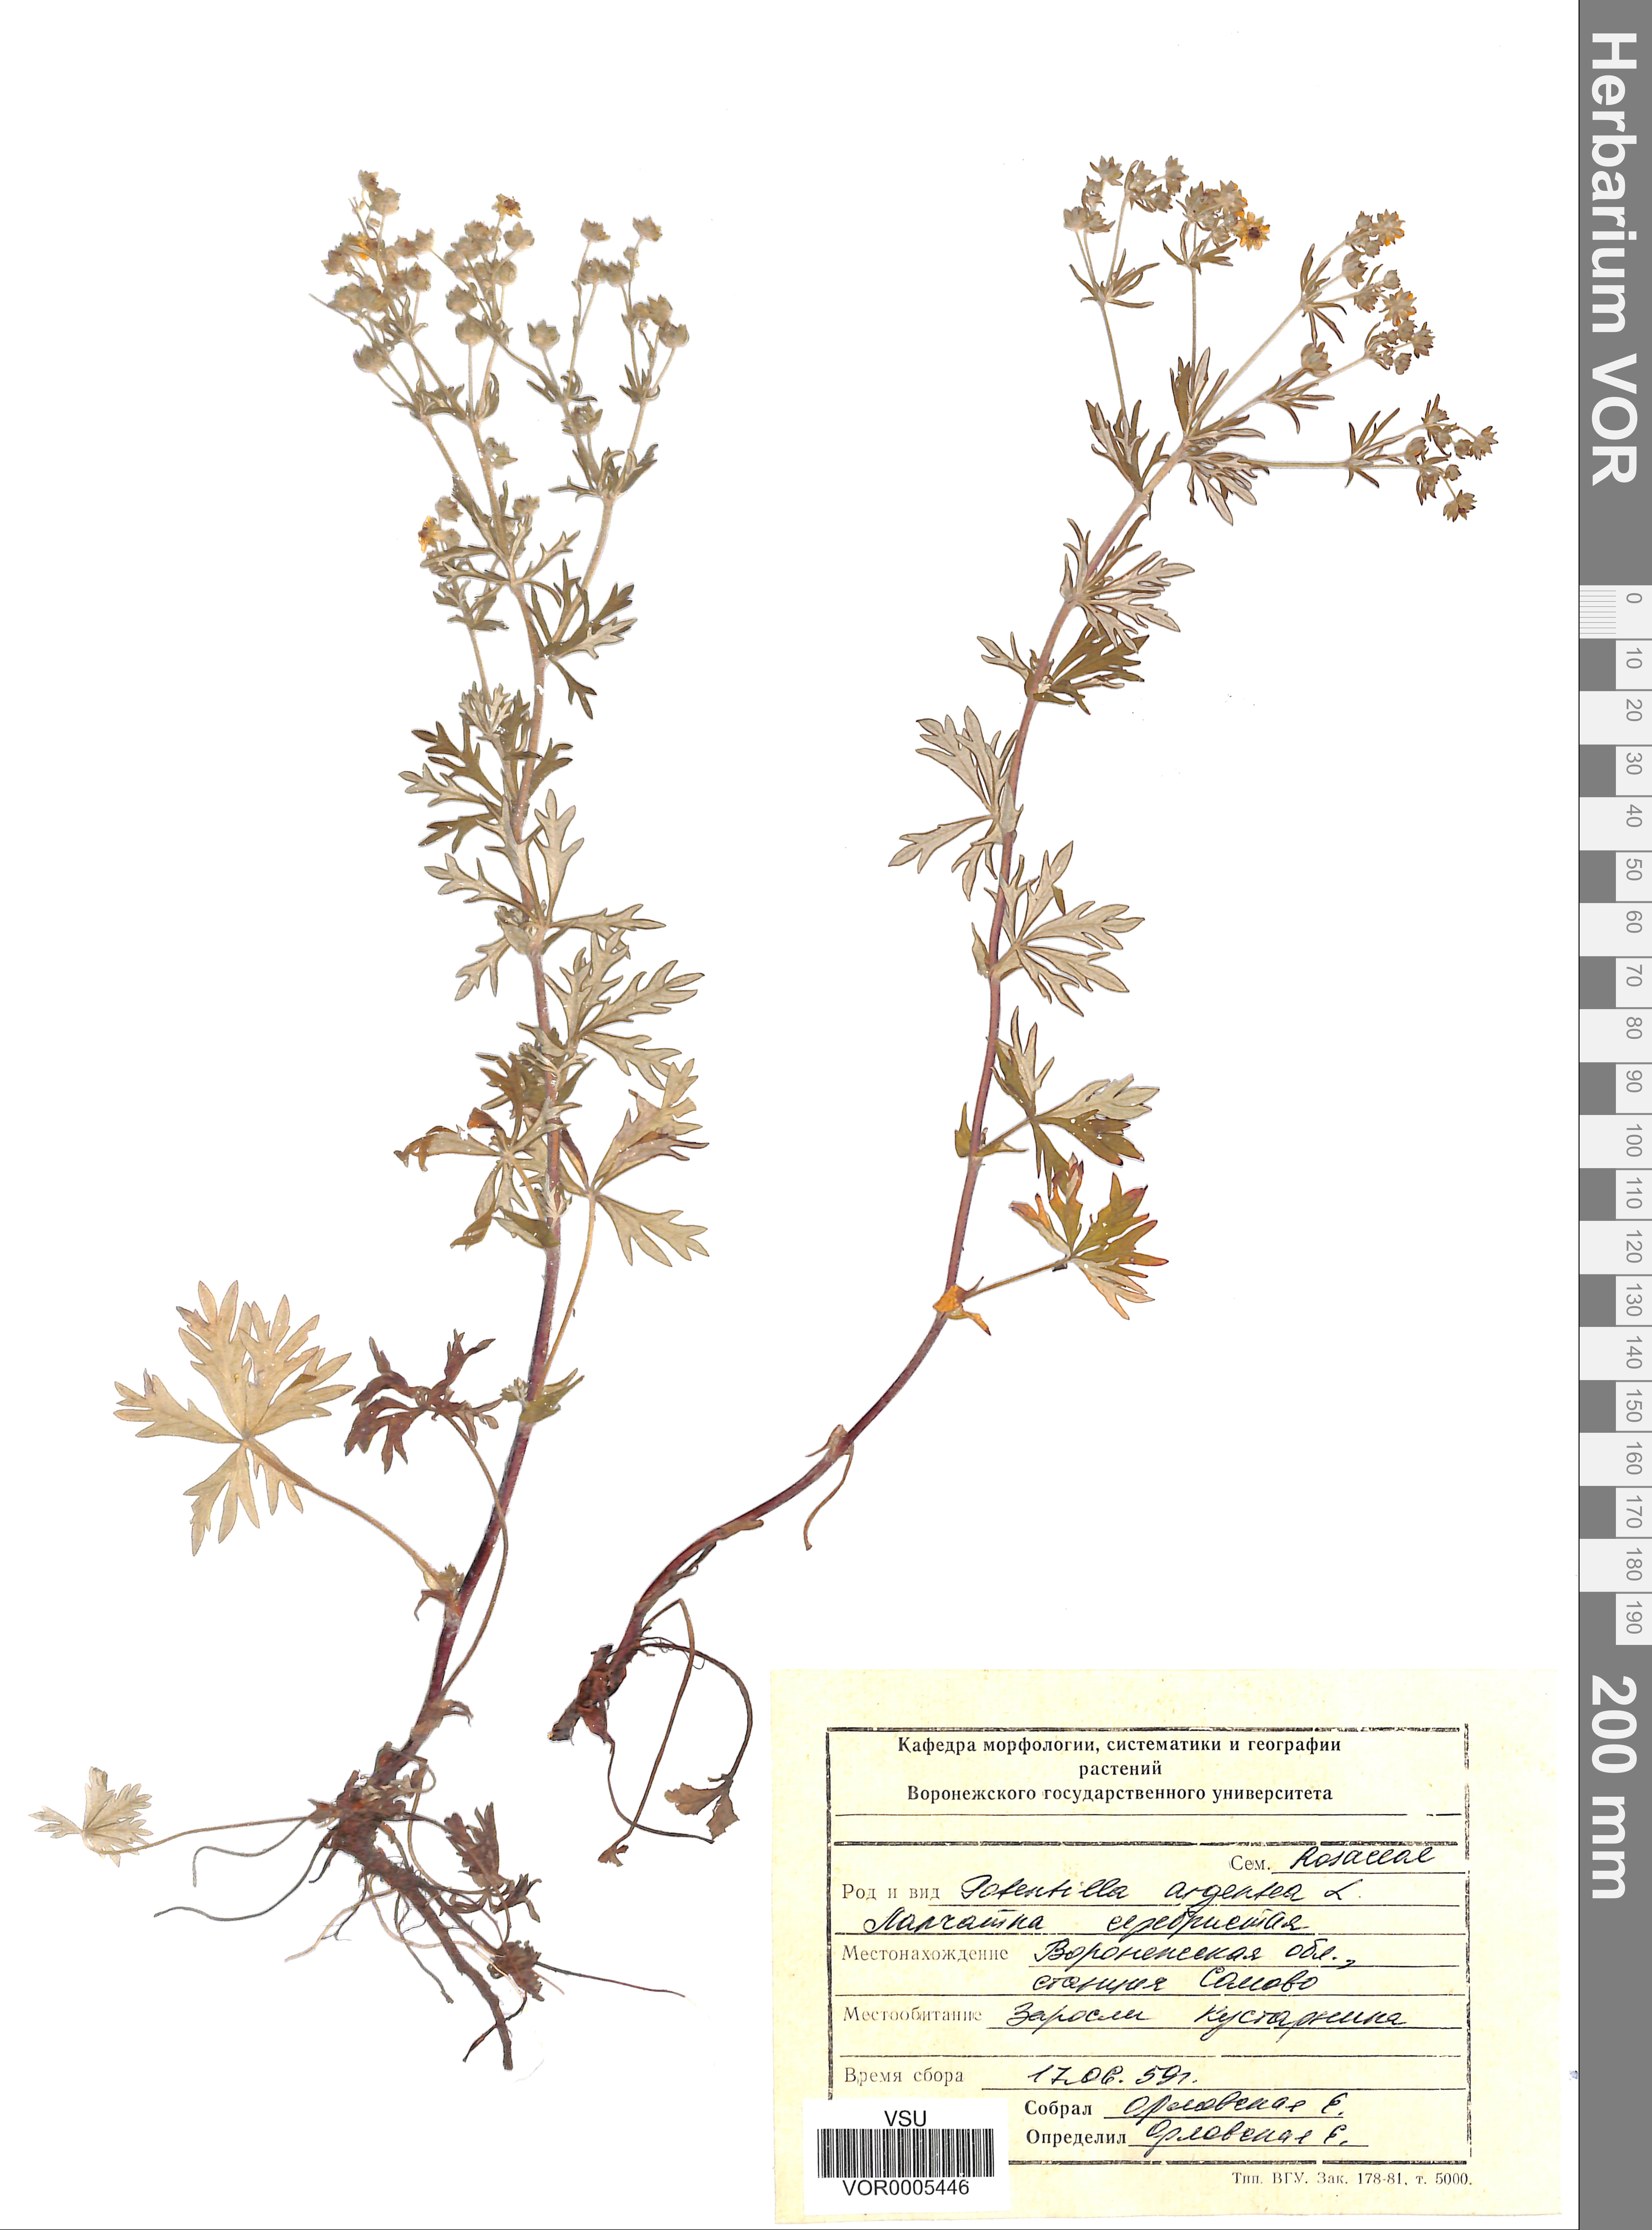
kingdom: Plantae
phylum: Tracheophyta
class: Magnoliopsida
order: Rosales
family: Rosaceae
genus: Potentilla
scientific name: Potentilla argentea
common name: Hoary cinquefoil
